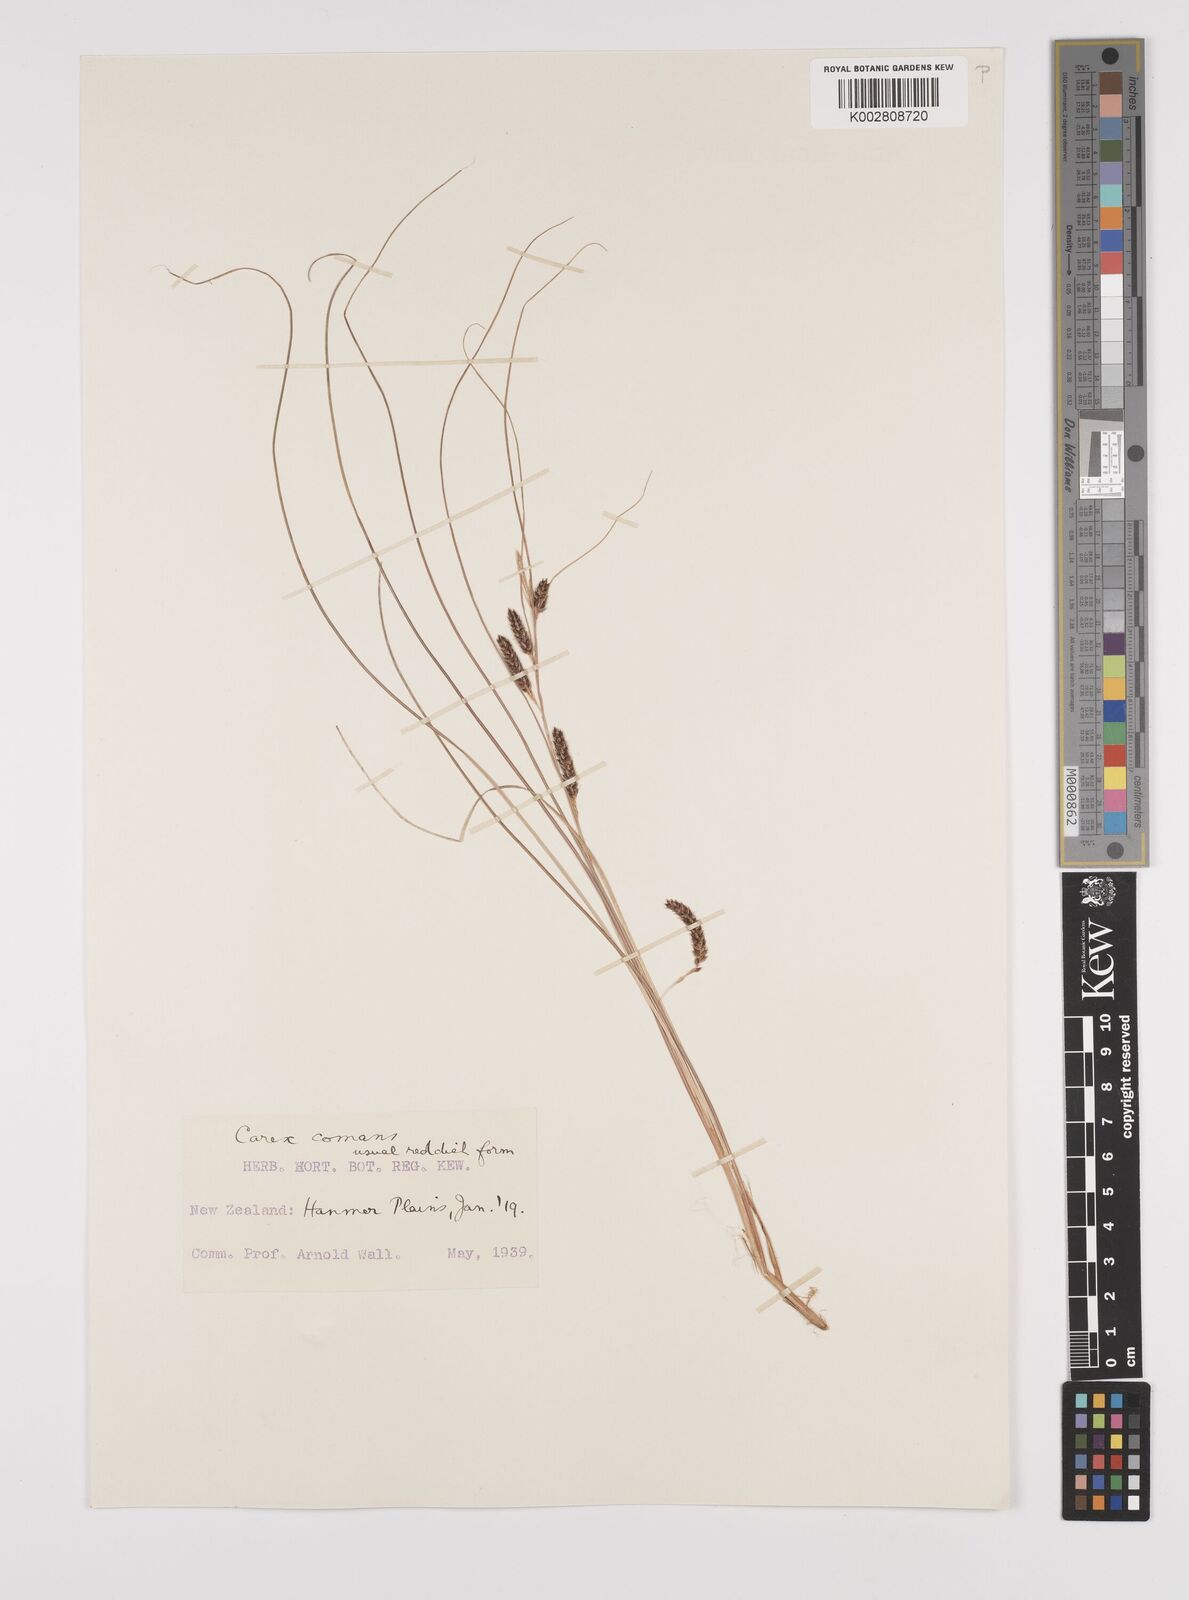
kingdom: Plantae
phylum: Tracheophyta
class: Liliopsida
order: Poales
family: Cyperaceae
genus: Carex
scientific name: Carex comans
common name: Longwood tussock
